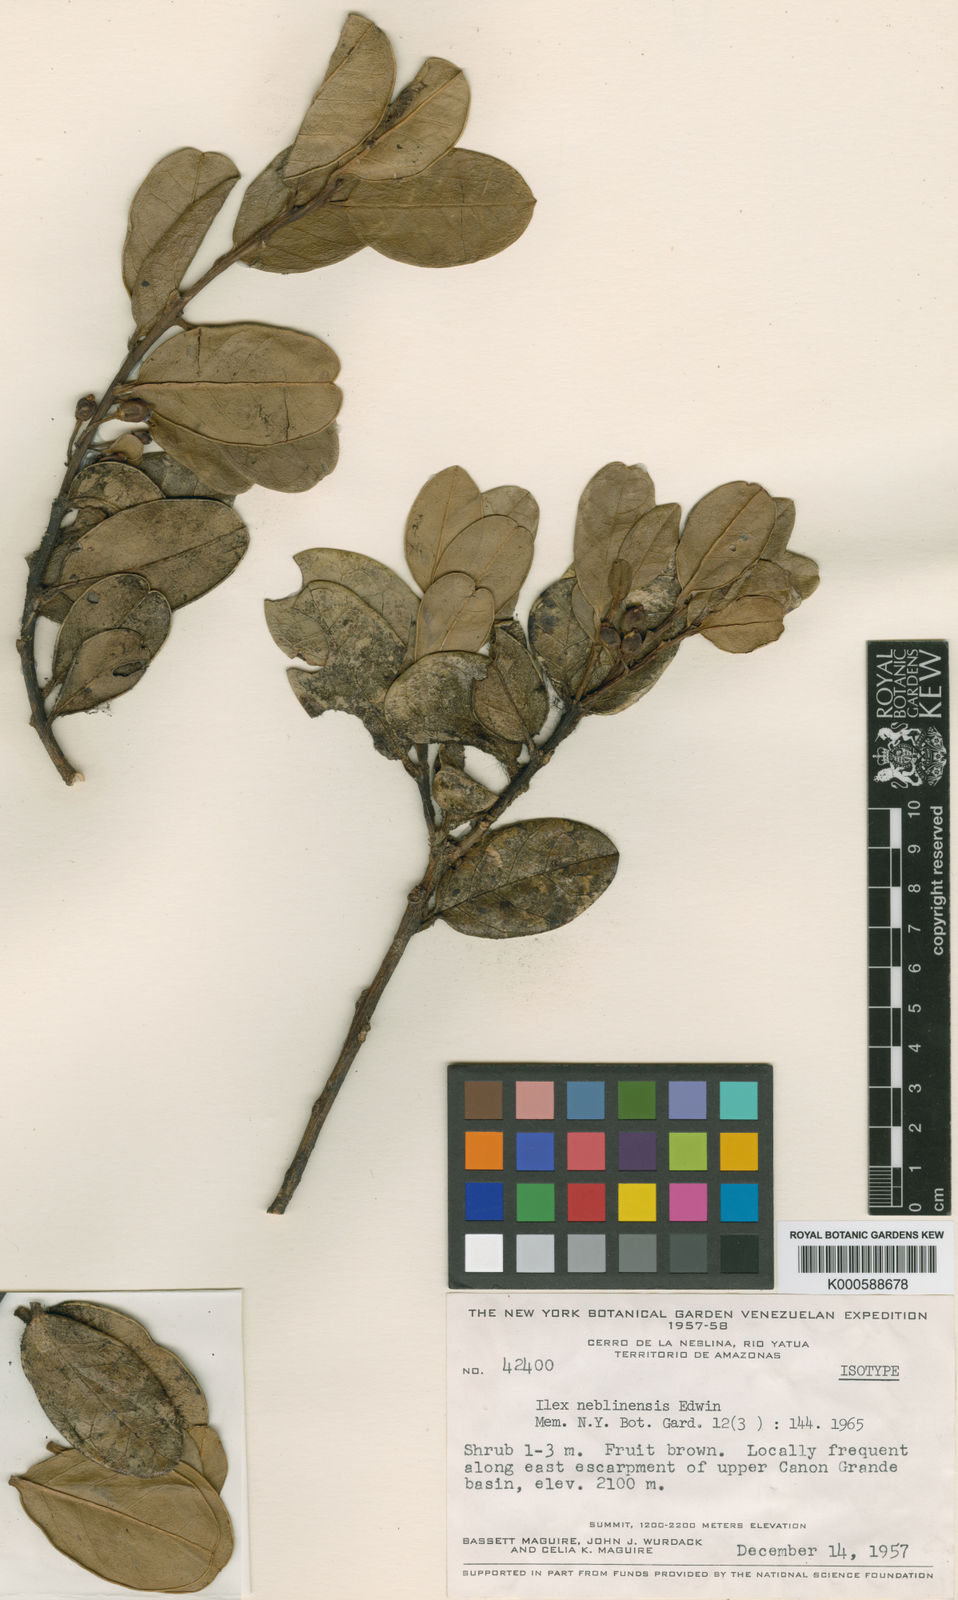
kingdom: Plantae
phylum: Tracheophyta
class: Magnoliopsida
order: Aquifoliales
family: Aquifoliaceae
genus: Ilex
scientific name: Ilex neblinensis
